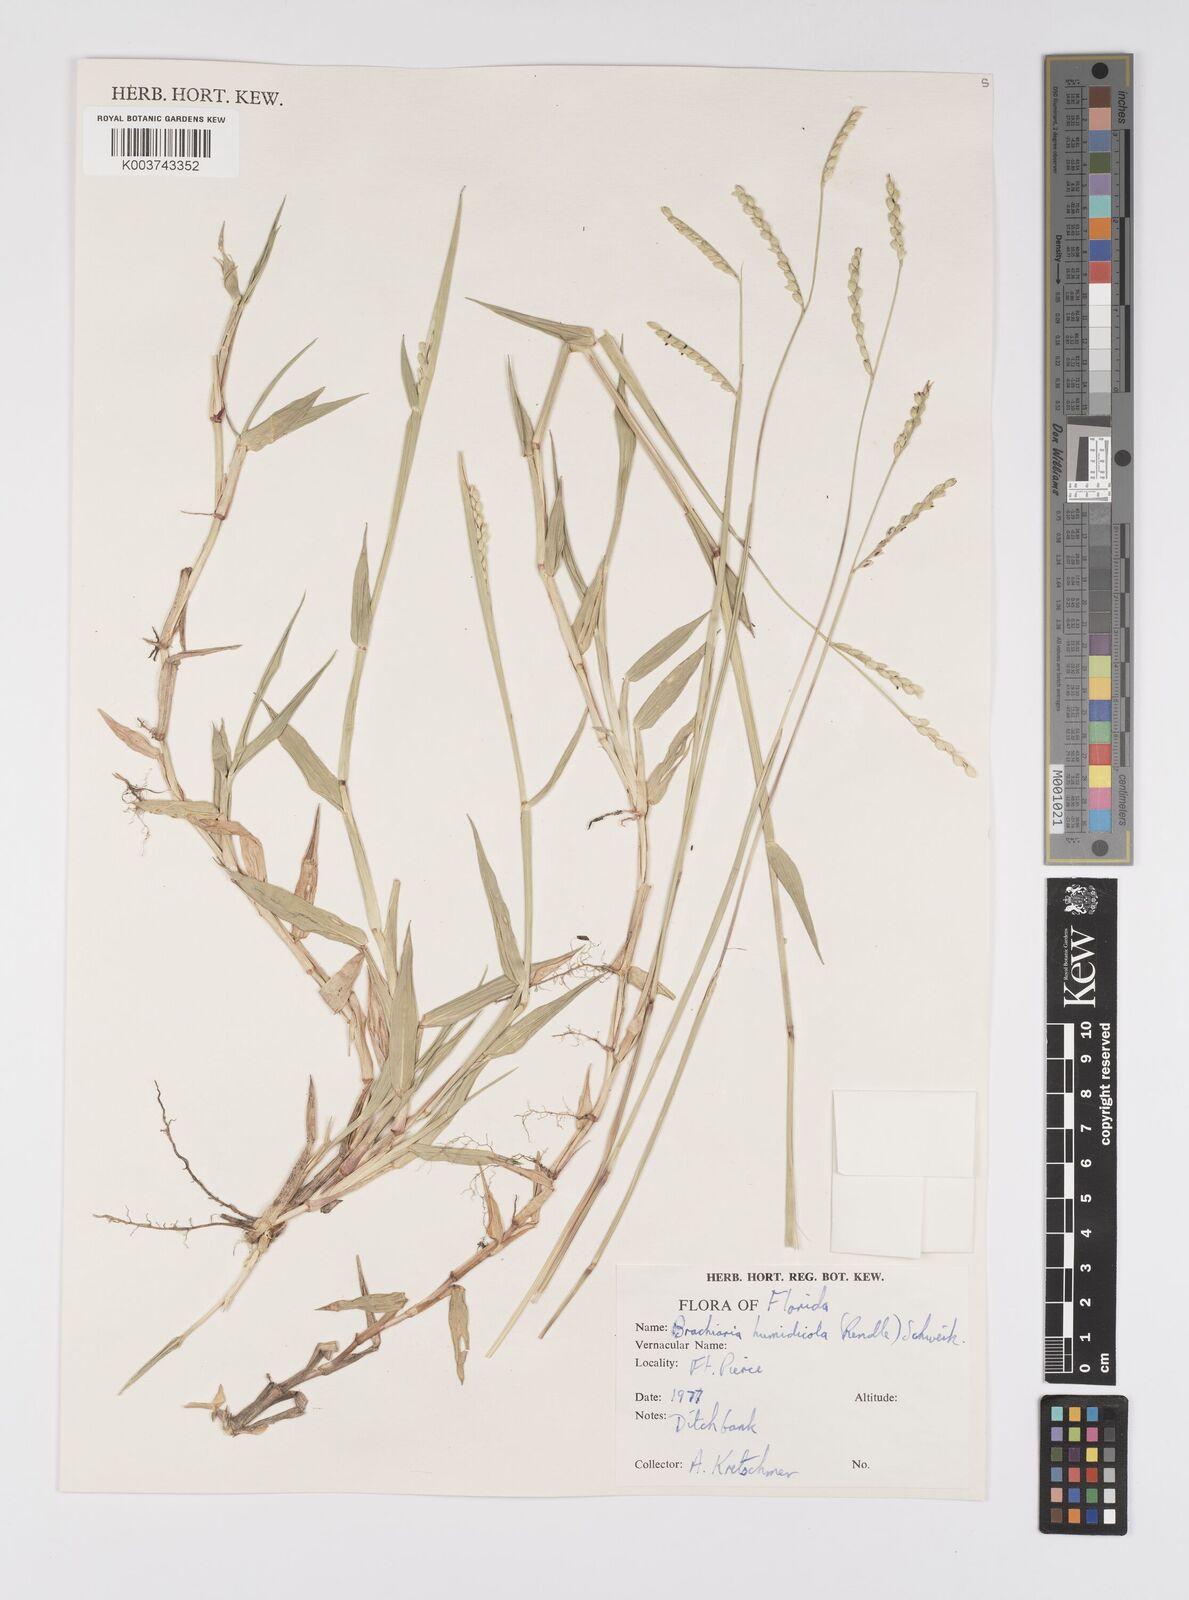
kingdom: Plantae
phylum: Tracheophyta
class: Liliopsida
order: Poales
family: Poaceae
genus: Urochloa
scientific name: Urochloa dictyoneura
